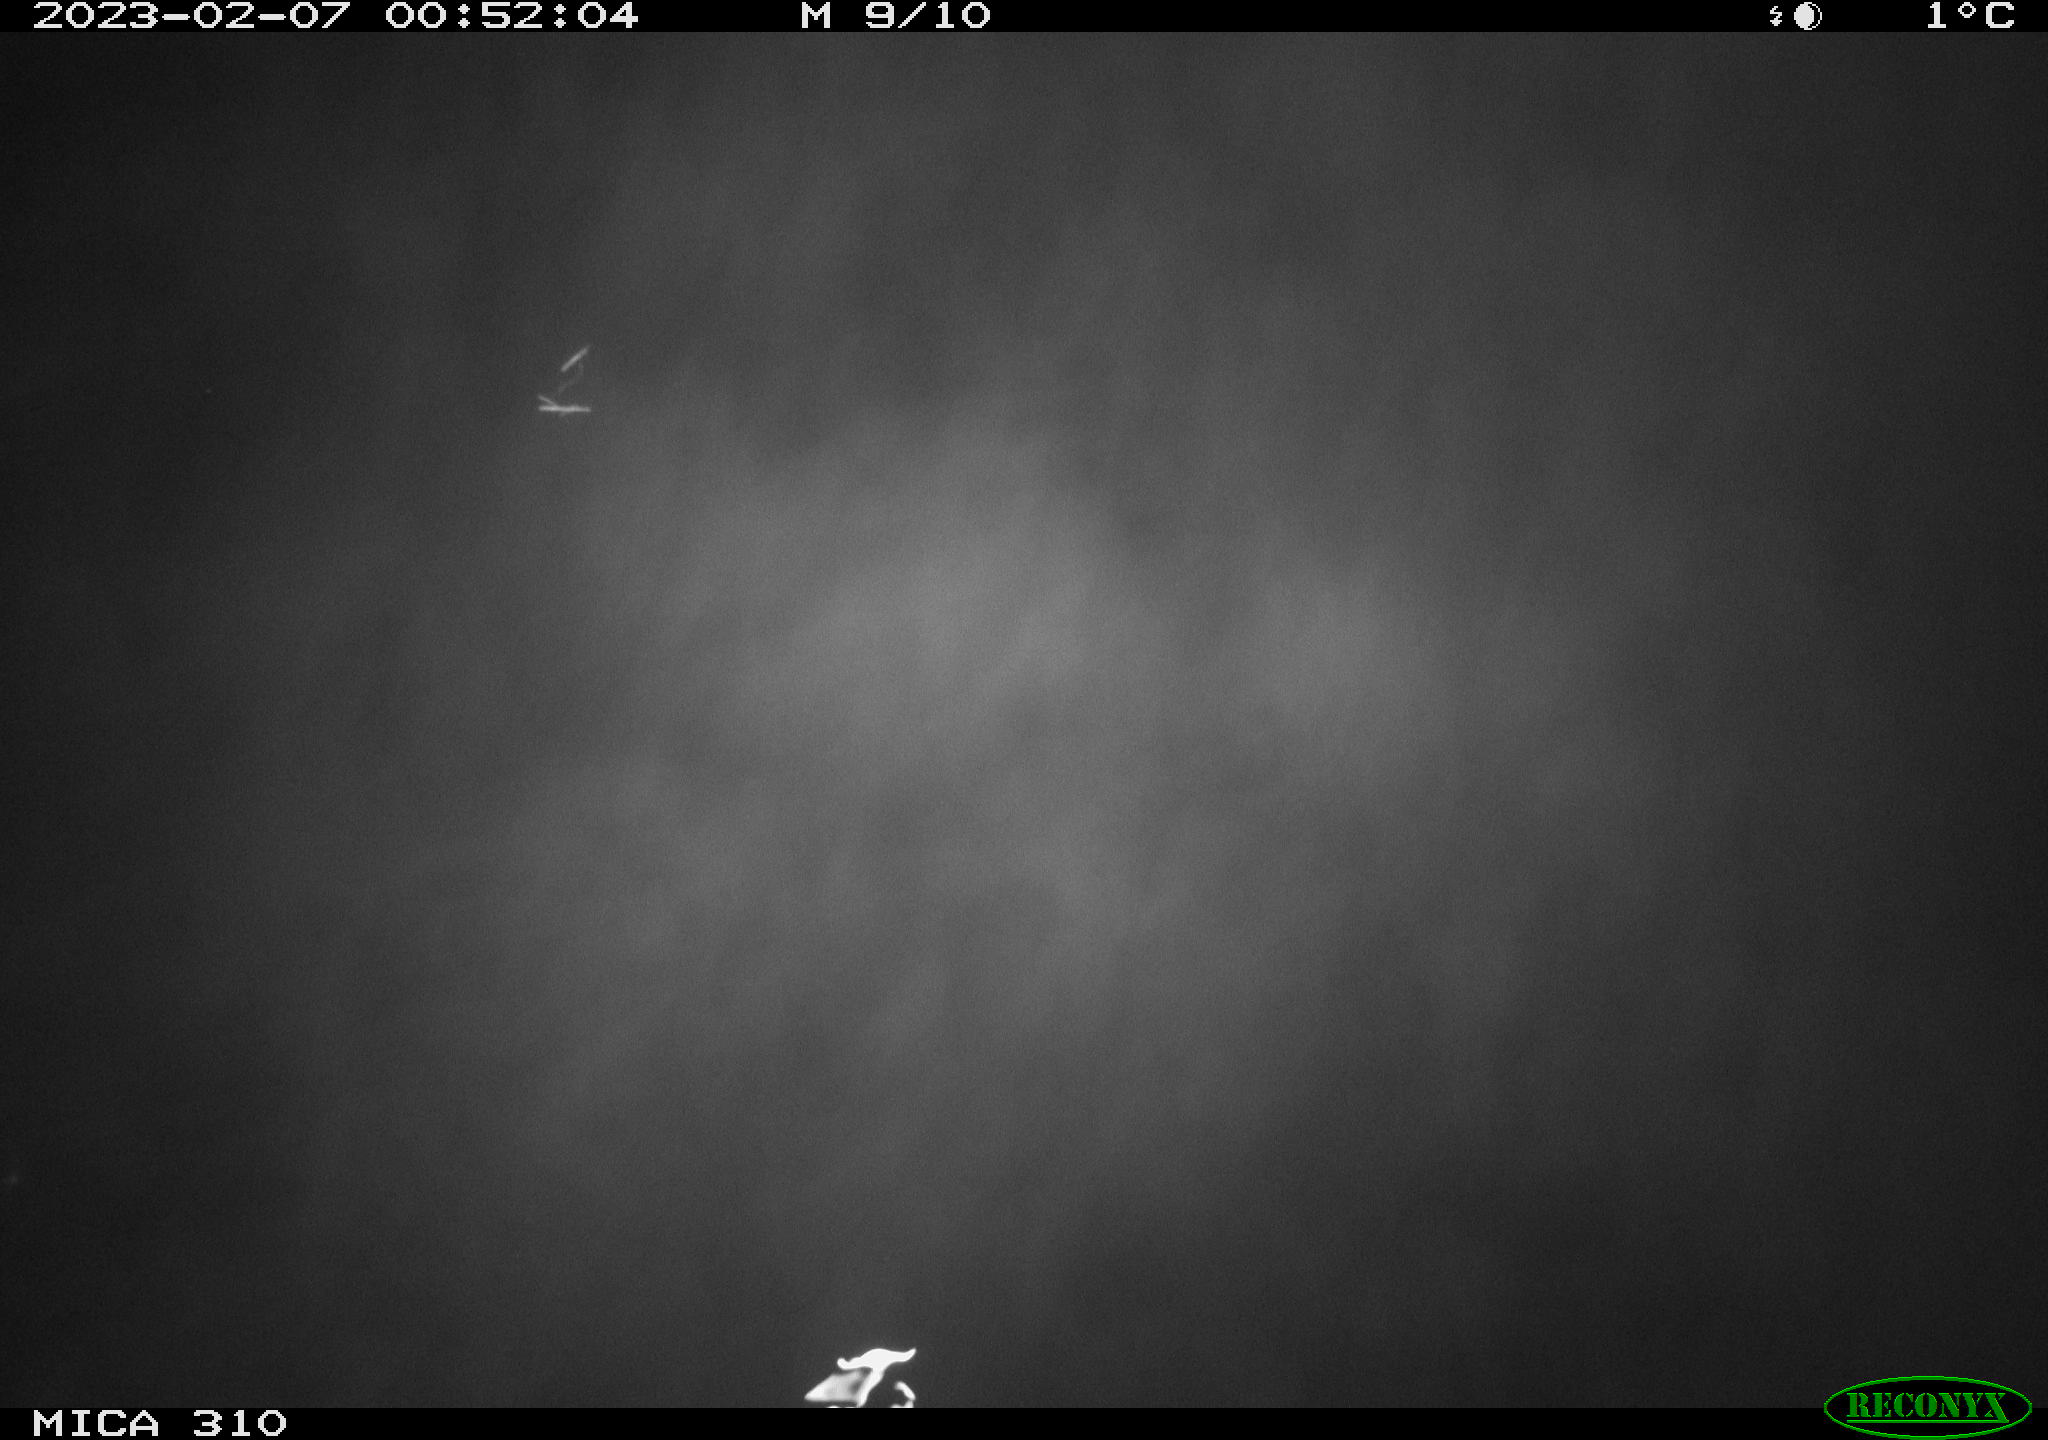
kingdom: Animalia
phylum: Chordata
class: Mammalia
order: Rodentia
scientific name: Rodentia
